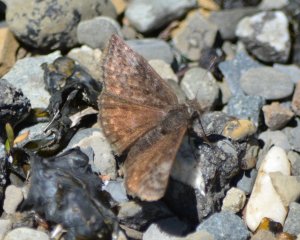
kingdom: Animalia
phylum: Arthropoda
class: Insecta
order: Lepidoptera
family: Hesperiidae
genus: Erynnis
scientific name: Erynnis icelus
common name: Dreamy Duskywing
